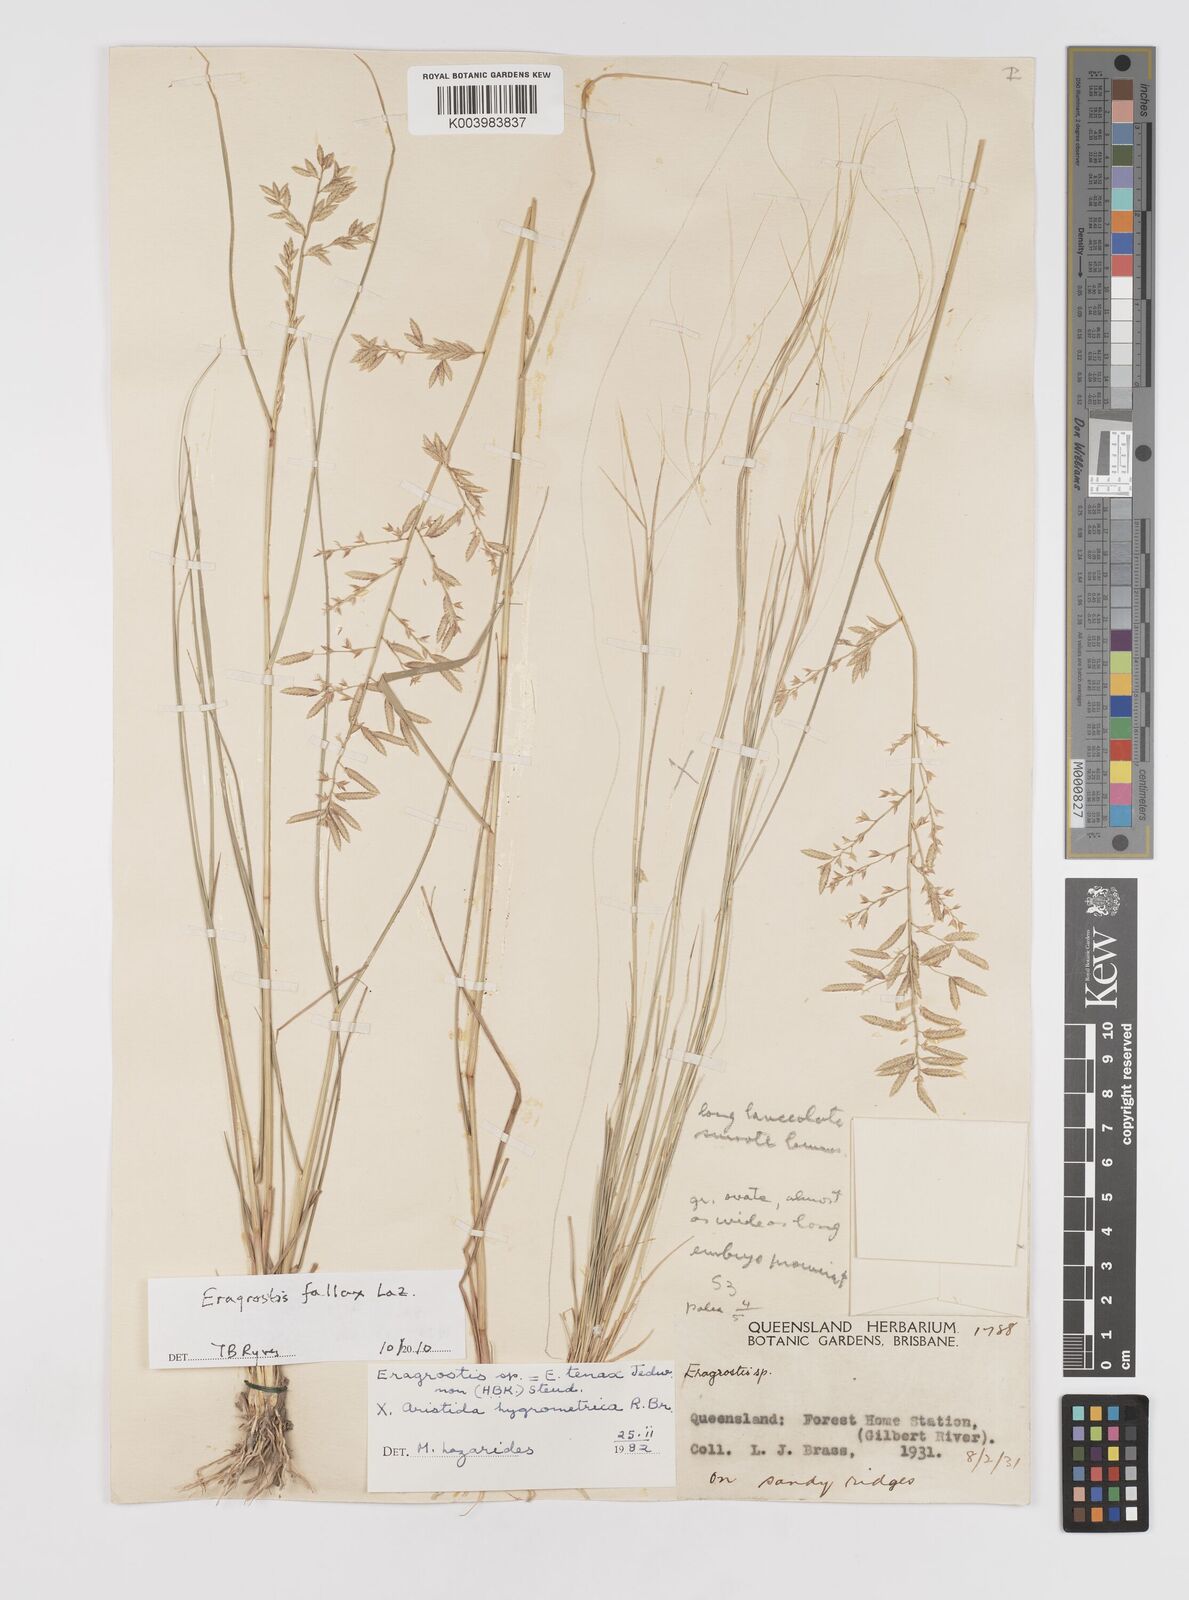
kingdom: Plantae
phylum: Tracheophyta
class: Liliopsida
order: Poales
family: Poaceae
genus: Eragrostis
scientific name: Eragrostis fallax
